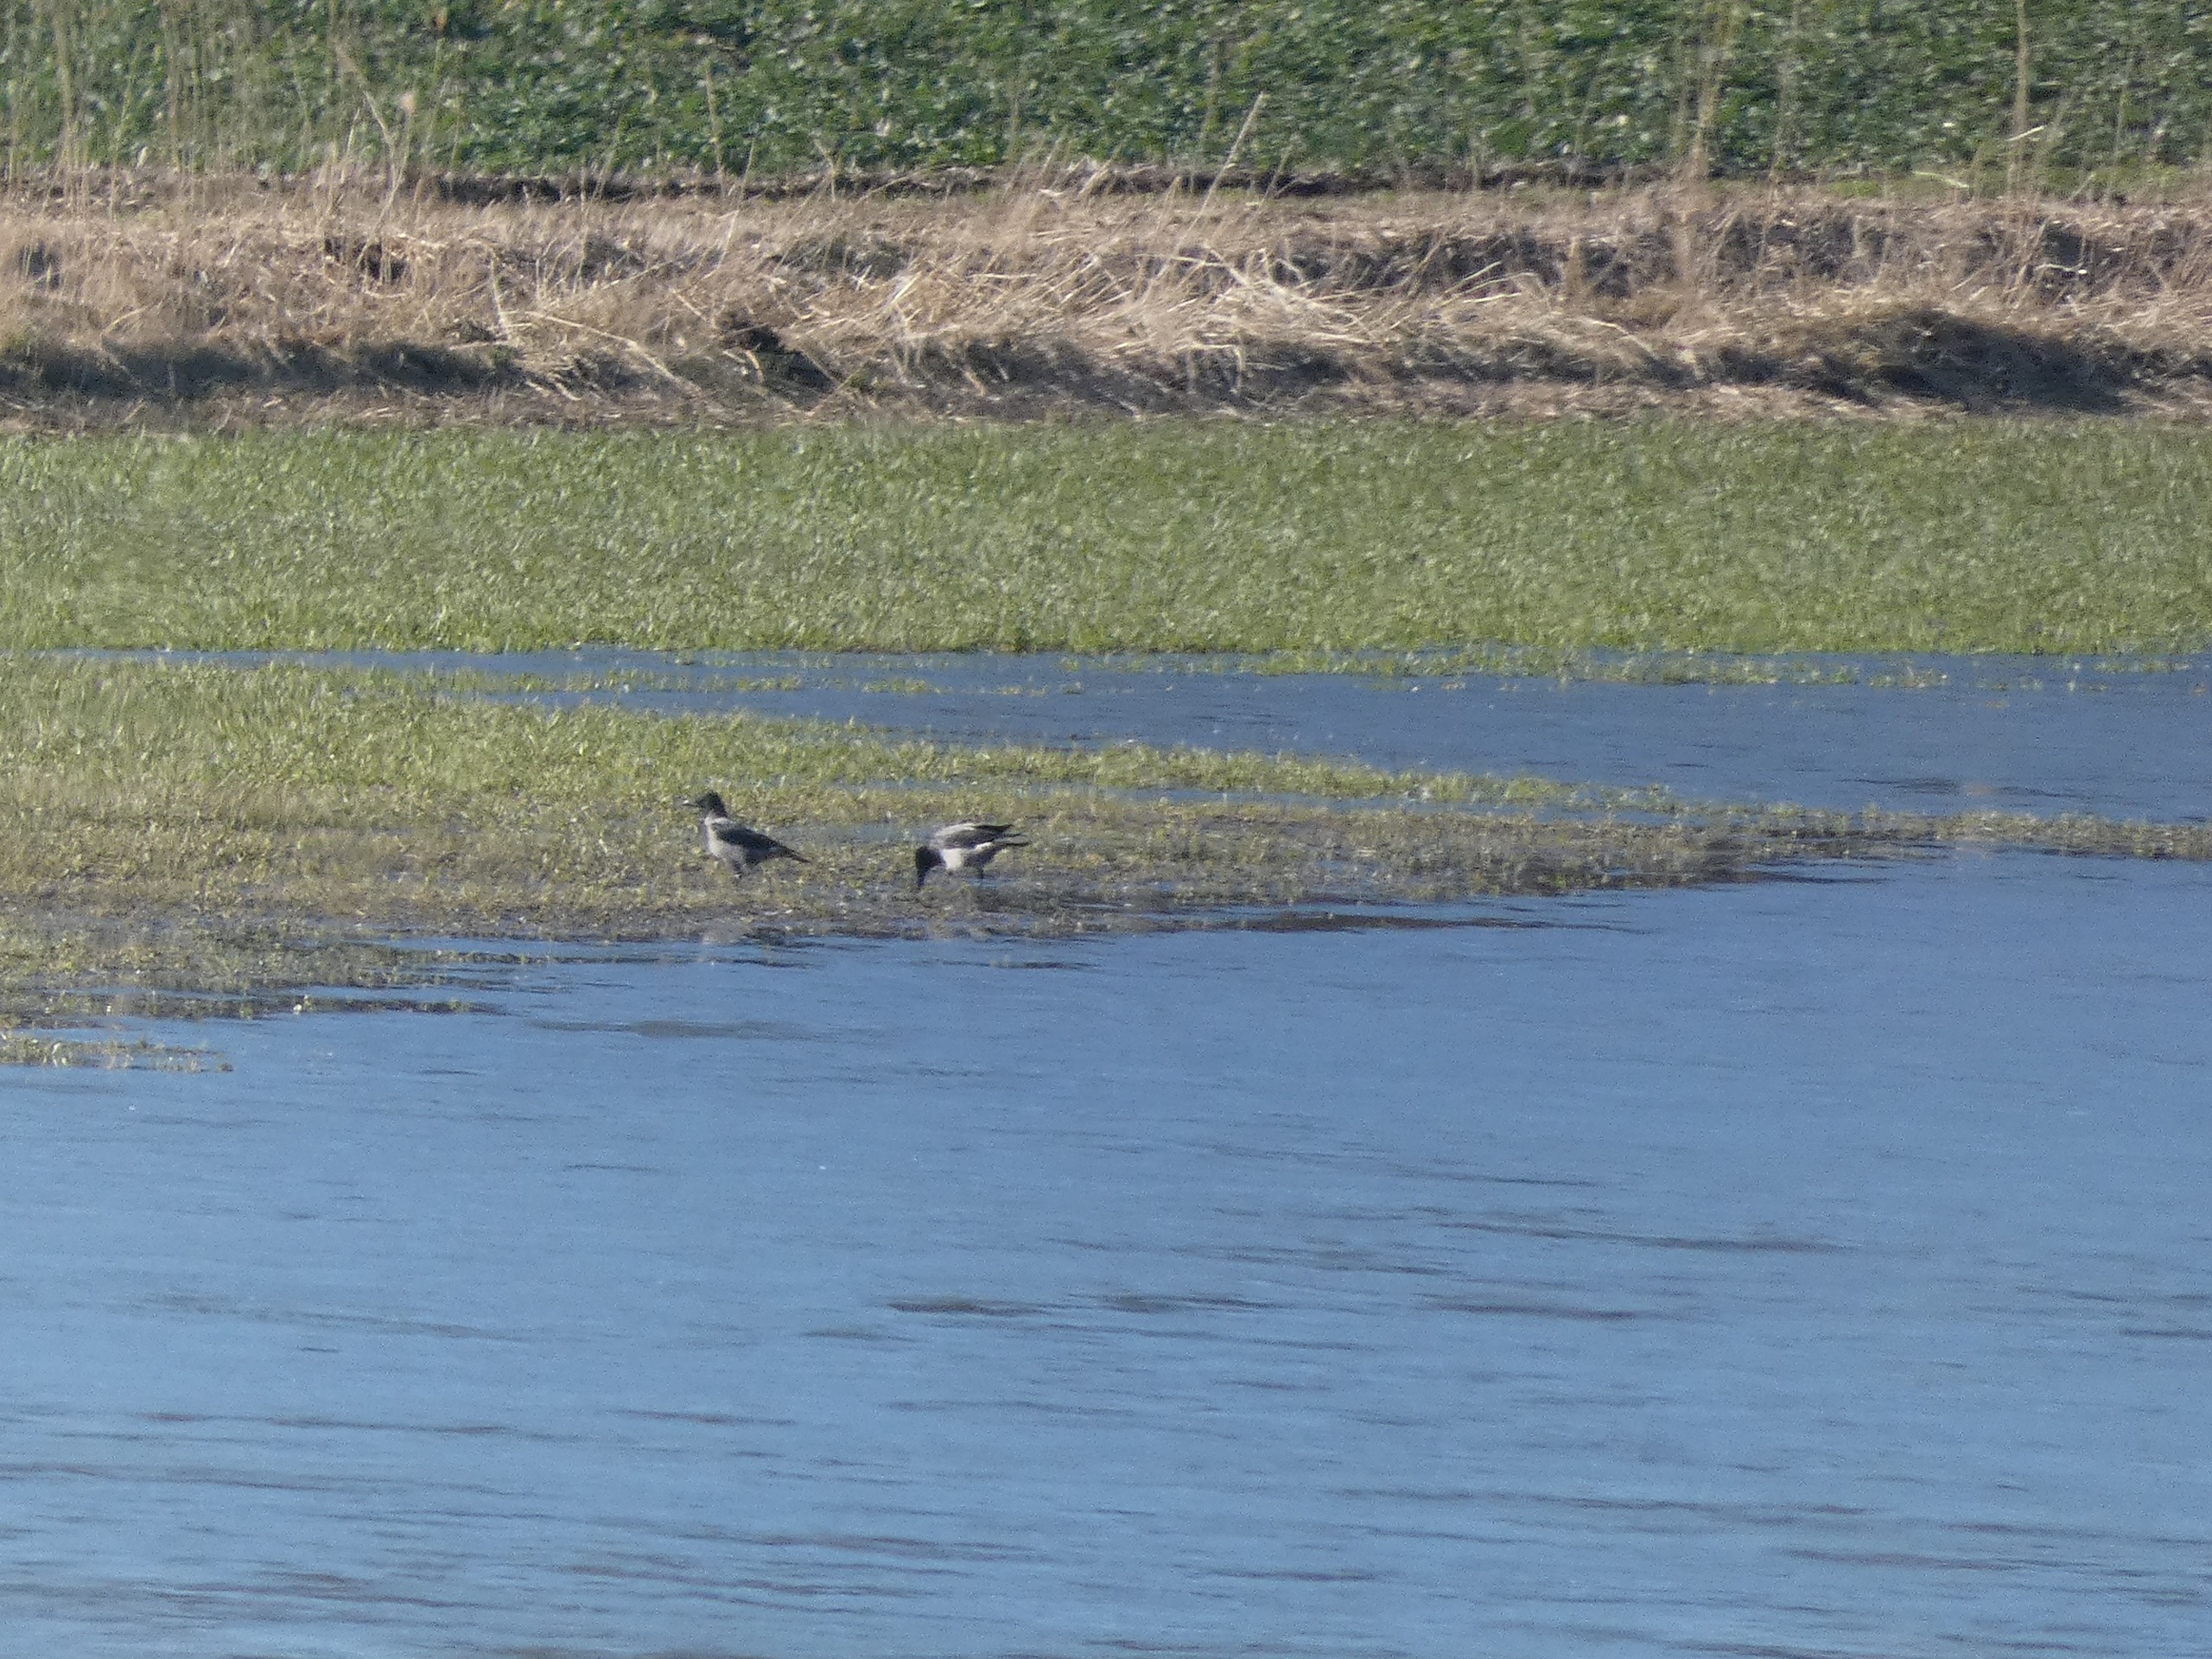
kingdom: Animalia
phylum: Chordata
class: Aves
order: Passeriformes
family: Corvidae
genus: Corvus
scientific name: Corvus cornix
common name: Gråkrage
